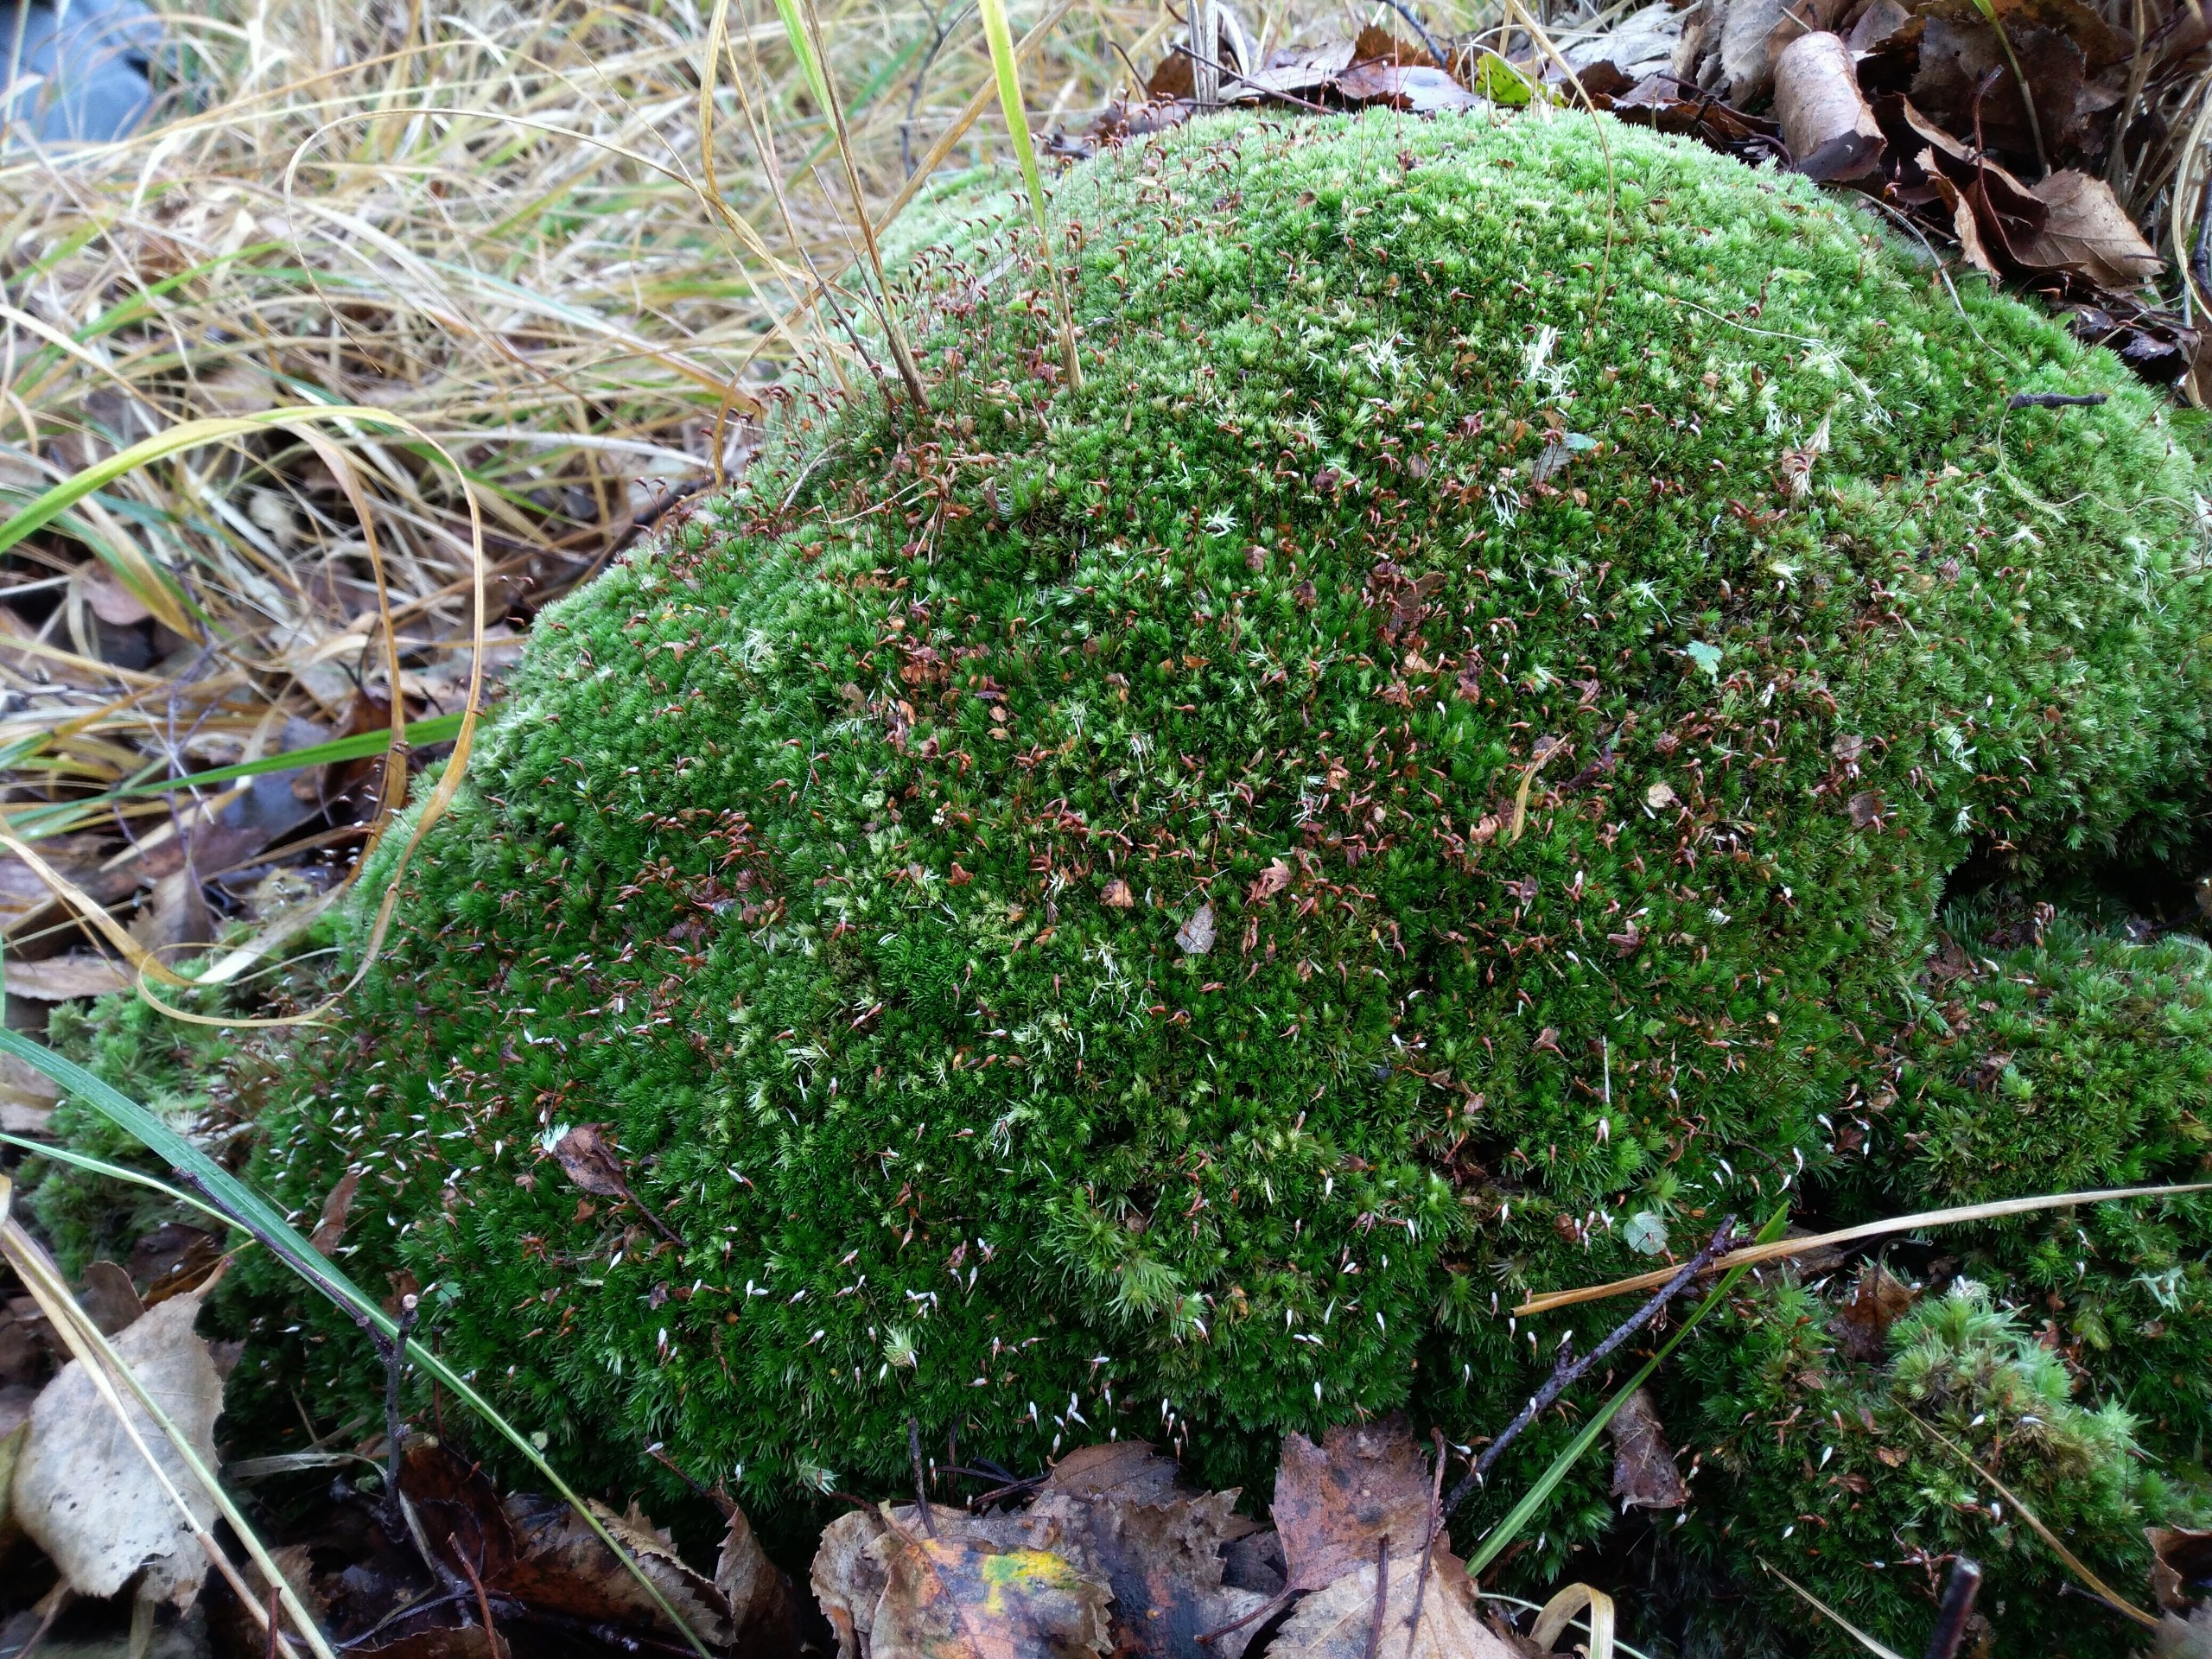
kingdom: Plantae
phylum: Bryophyta
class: Bryopsida
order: Dicranales
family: Leucobryaceae
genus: Leucobryum
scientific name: Leucobryum glaucum
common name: Almindelig hvidmos
